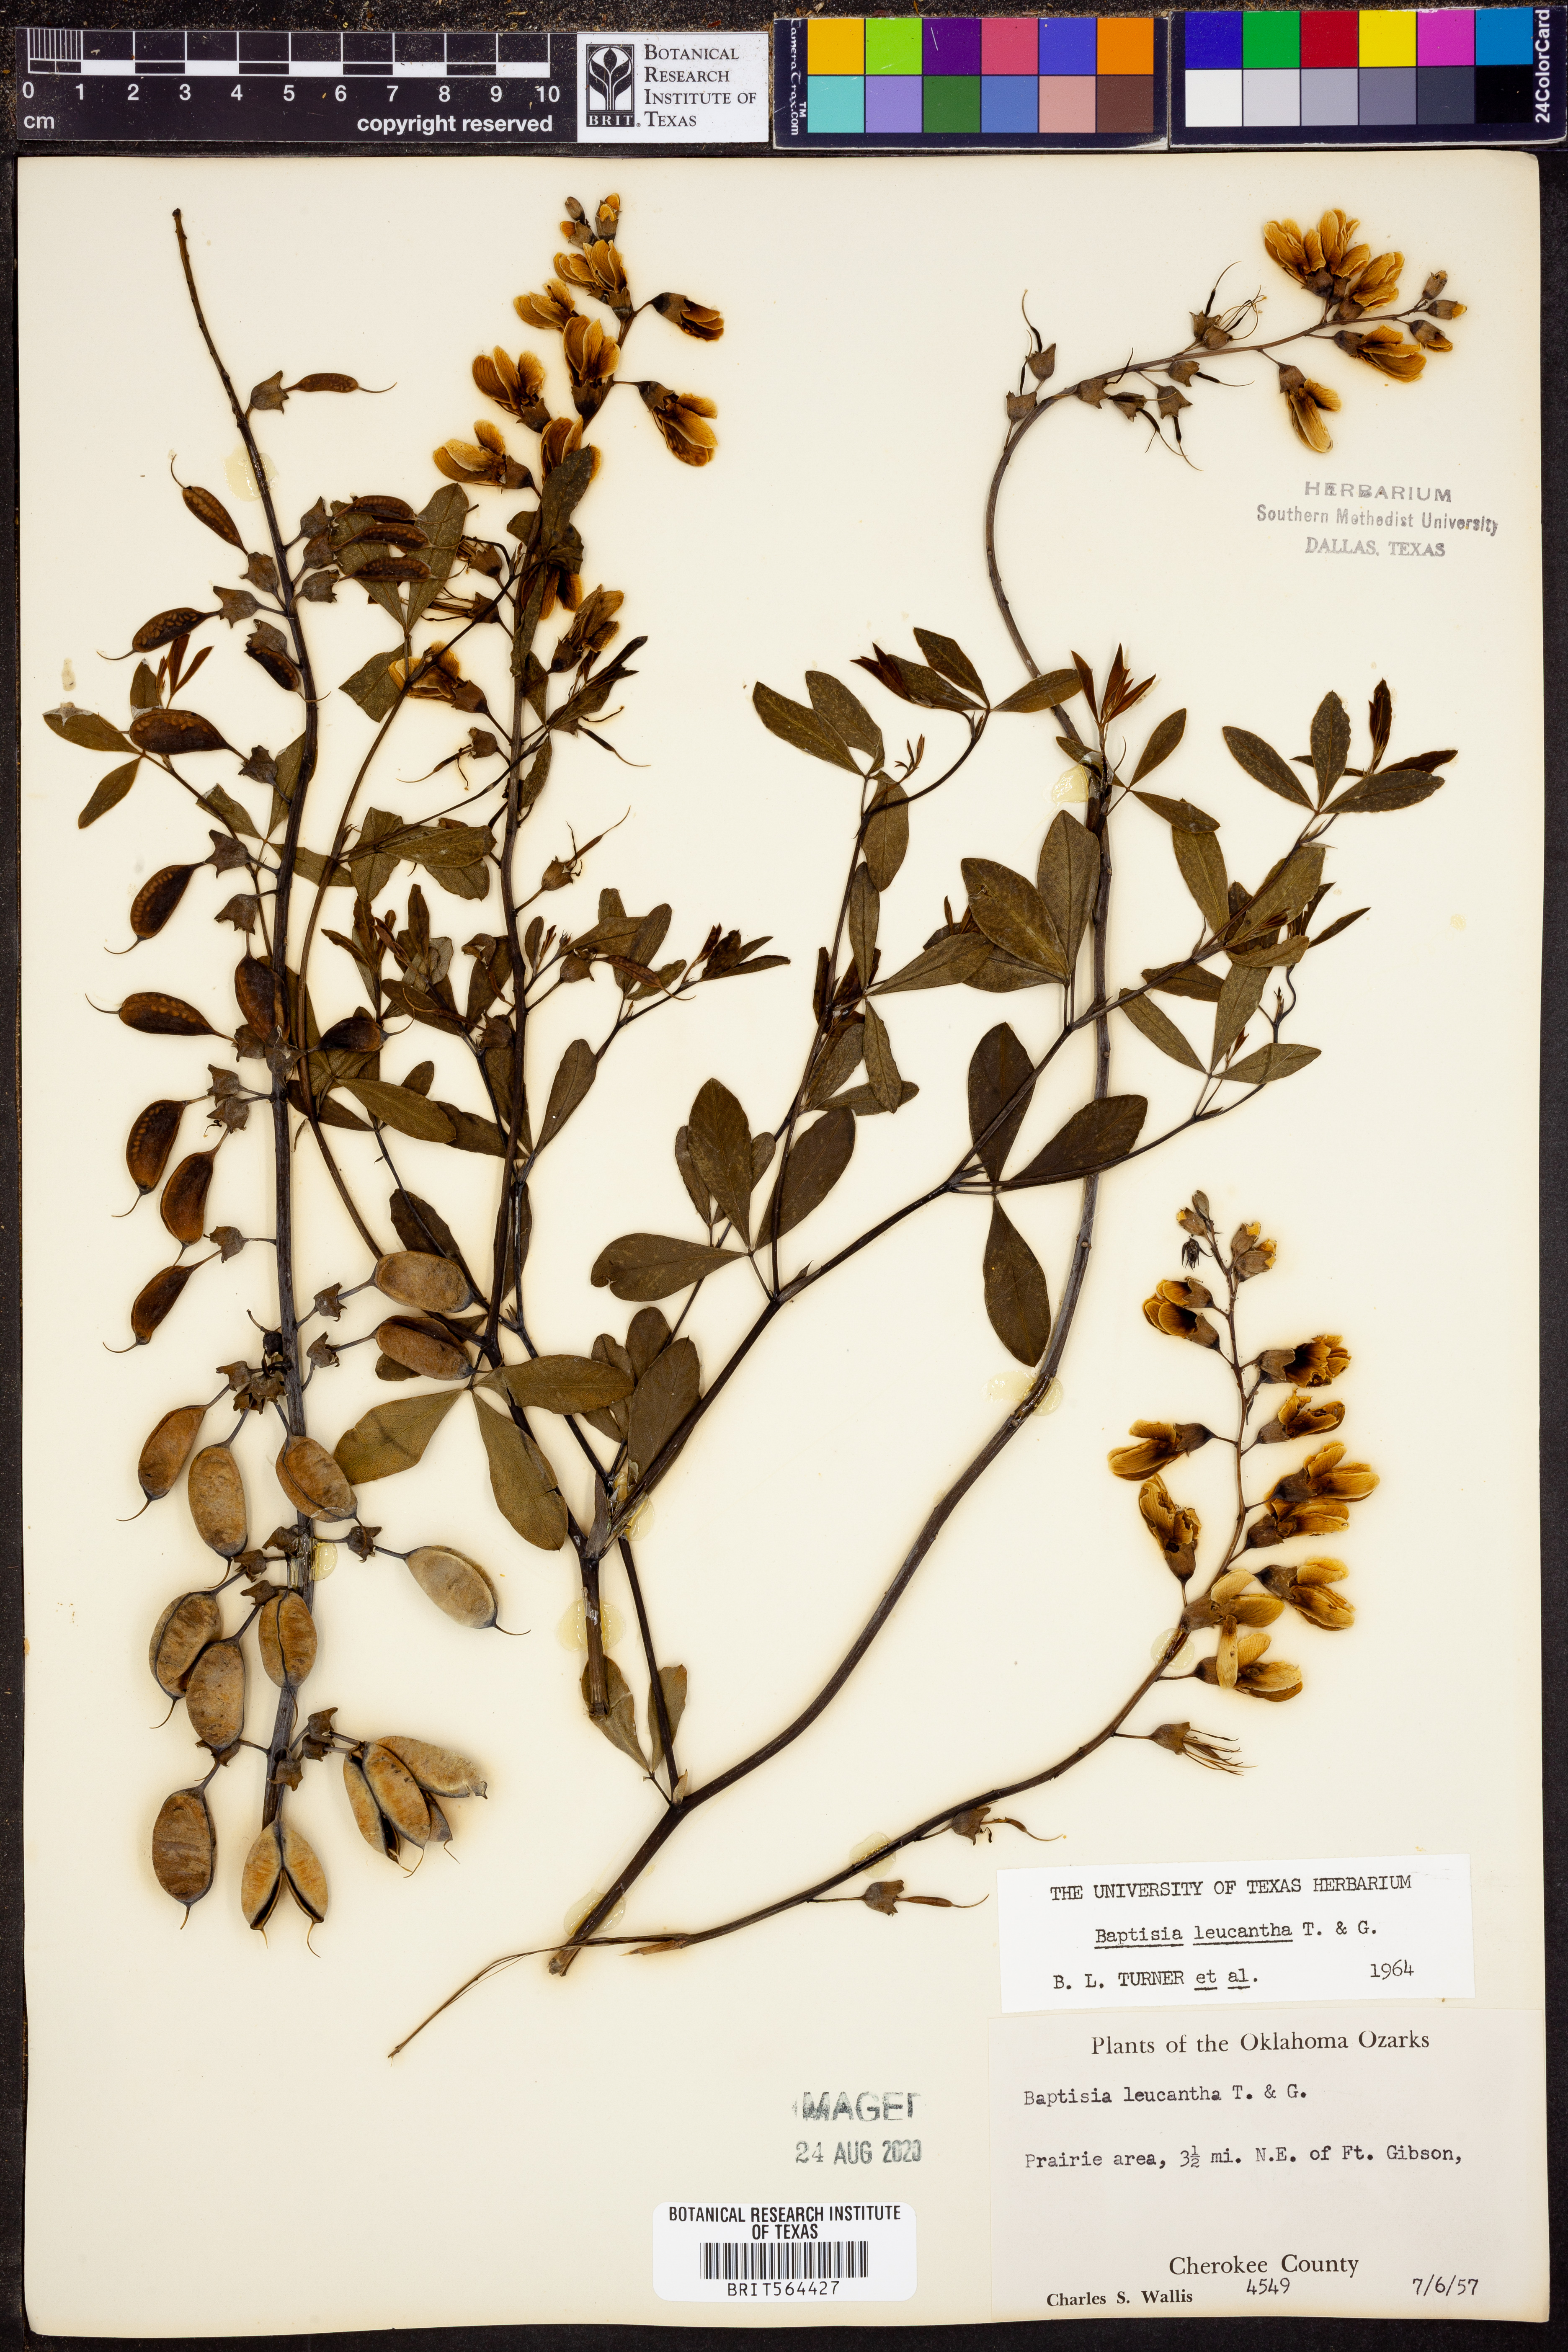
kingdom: Plantae
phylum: Tracheophyta
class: Magnoliopsida
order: Fabales
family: Fabaceae
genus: Baptisia
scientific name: Baptisia alba
